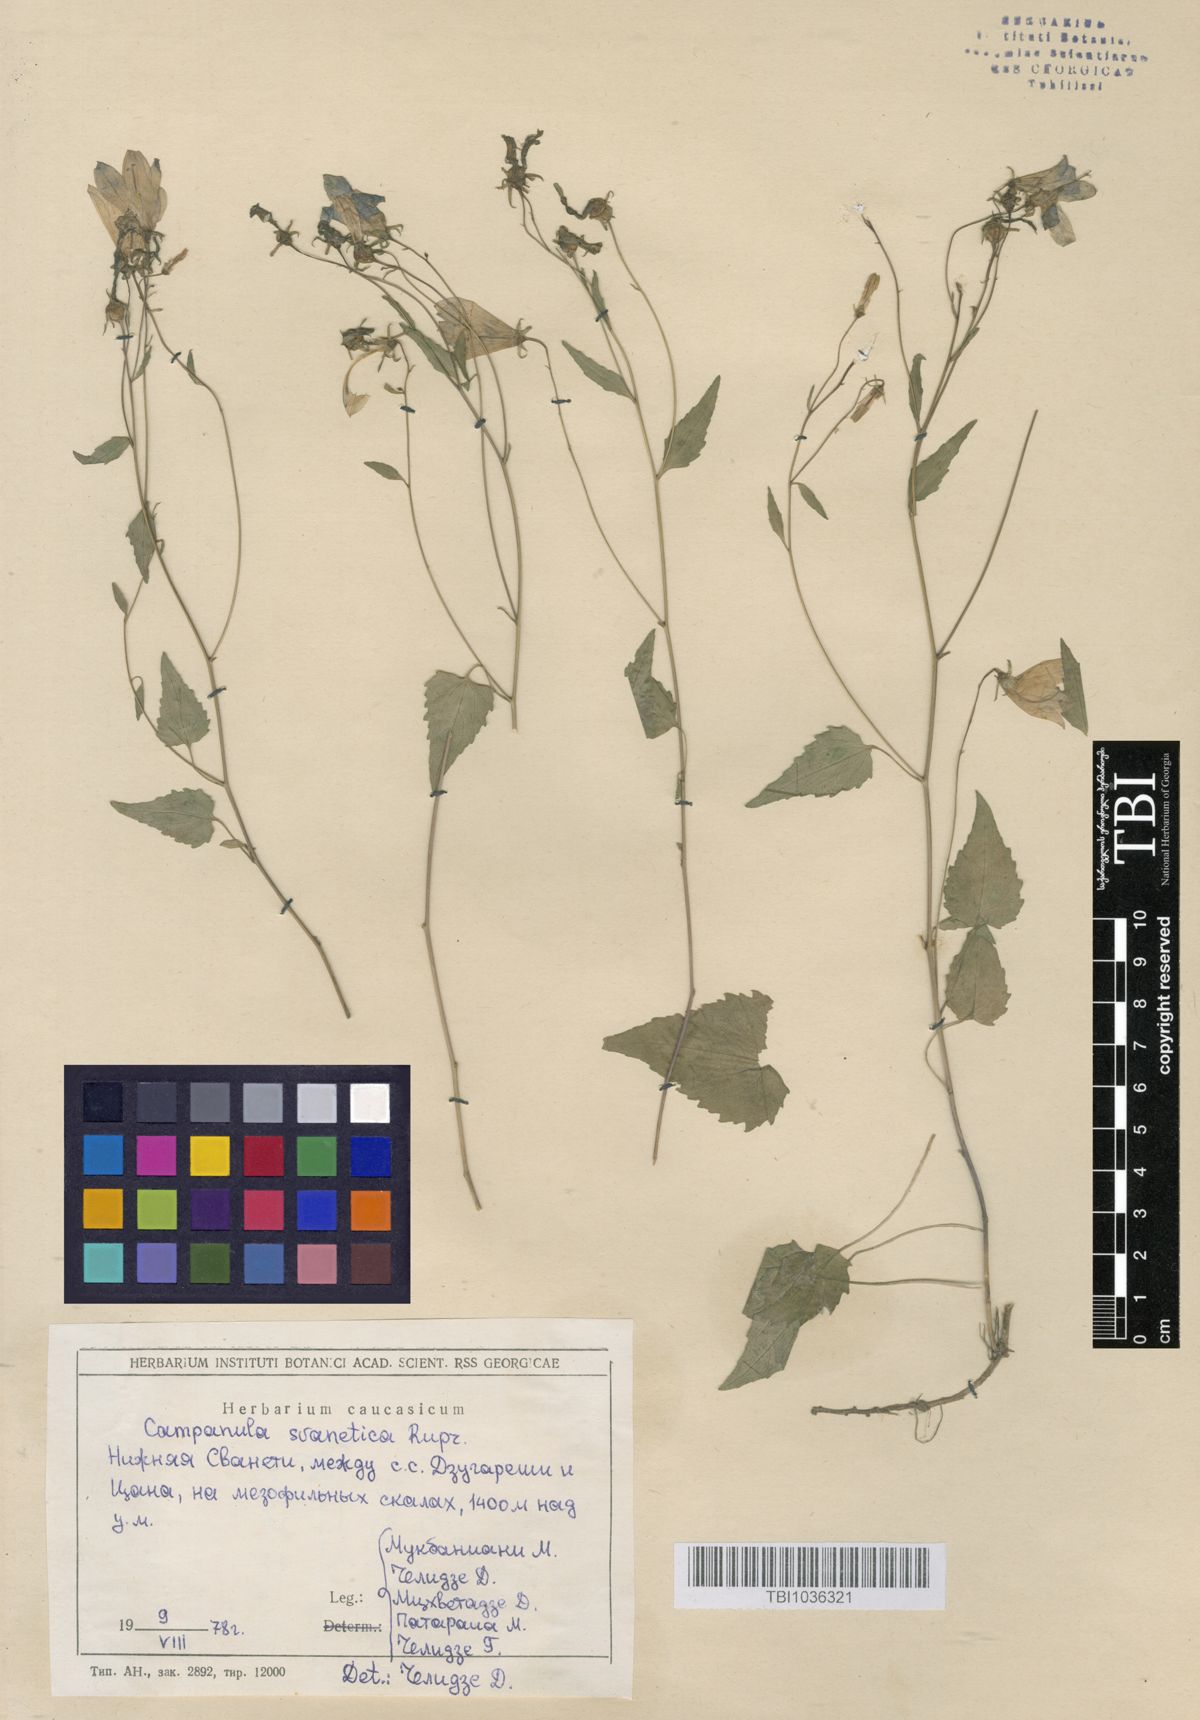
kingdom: Plantae
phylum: Tracheophyta
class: Magnoliopsida
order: Asterales
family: Campanulaceae
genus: Campanula
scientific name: Campanula suanetica
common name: Svanetian bellflower
